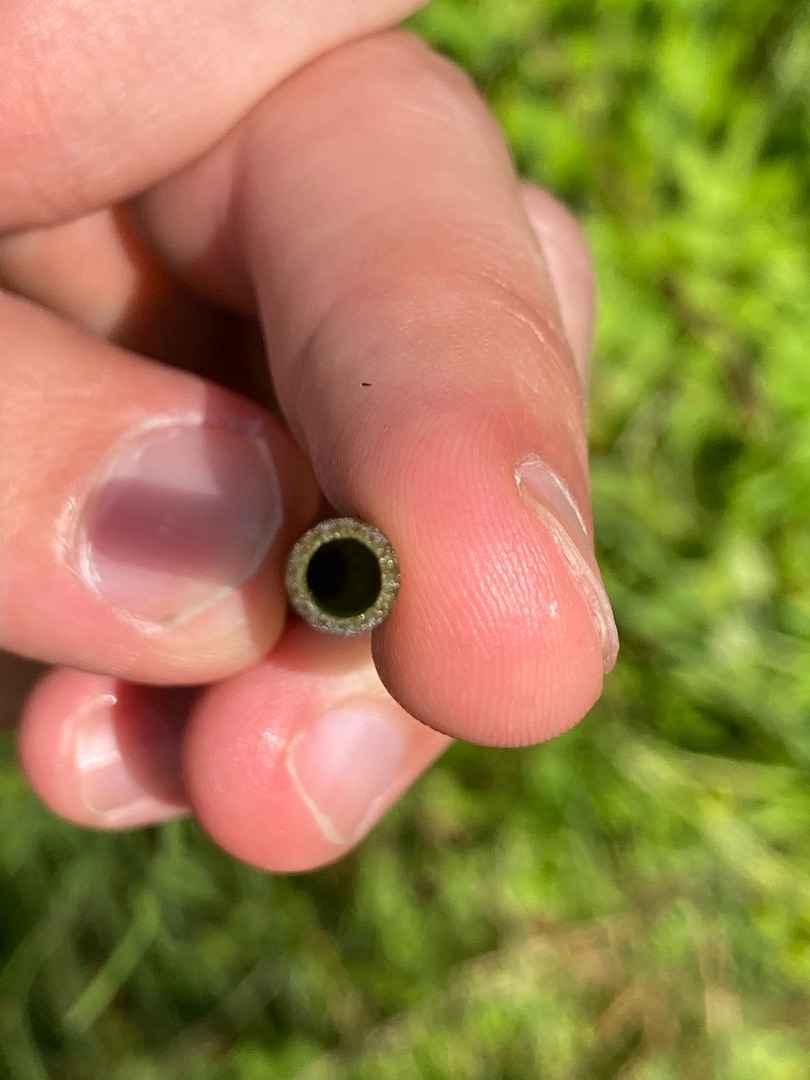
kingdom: Plantae
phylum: Tracheophyta
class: Polypodiopsida
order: Equisetales
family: Equisetaceae
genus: Equisetum
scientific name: Equisetum fluviatile
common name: Dynd-padderok
